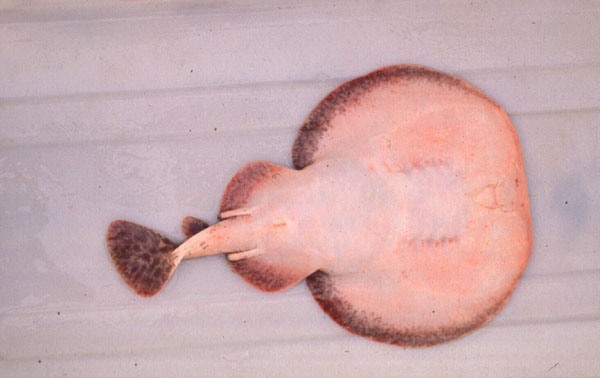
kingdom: Animalia
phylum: Chordata
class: Elasmobranchii
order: Torpediniformes
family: Torpedinidae
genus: Torpedo
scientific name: Torpedo fuscomaculata
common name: Blackspotted electric ray
